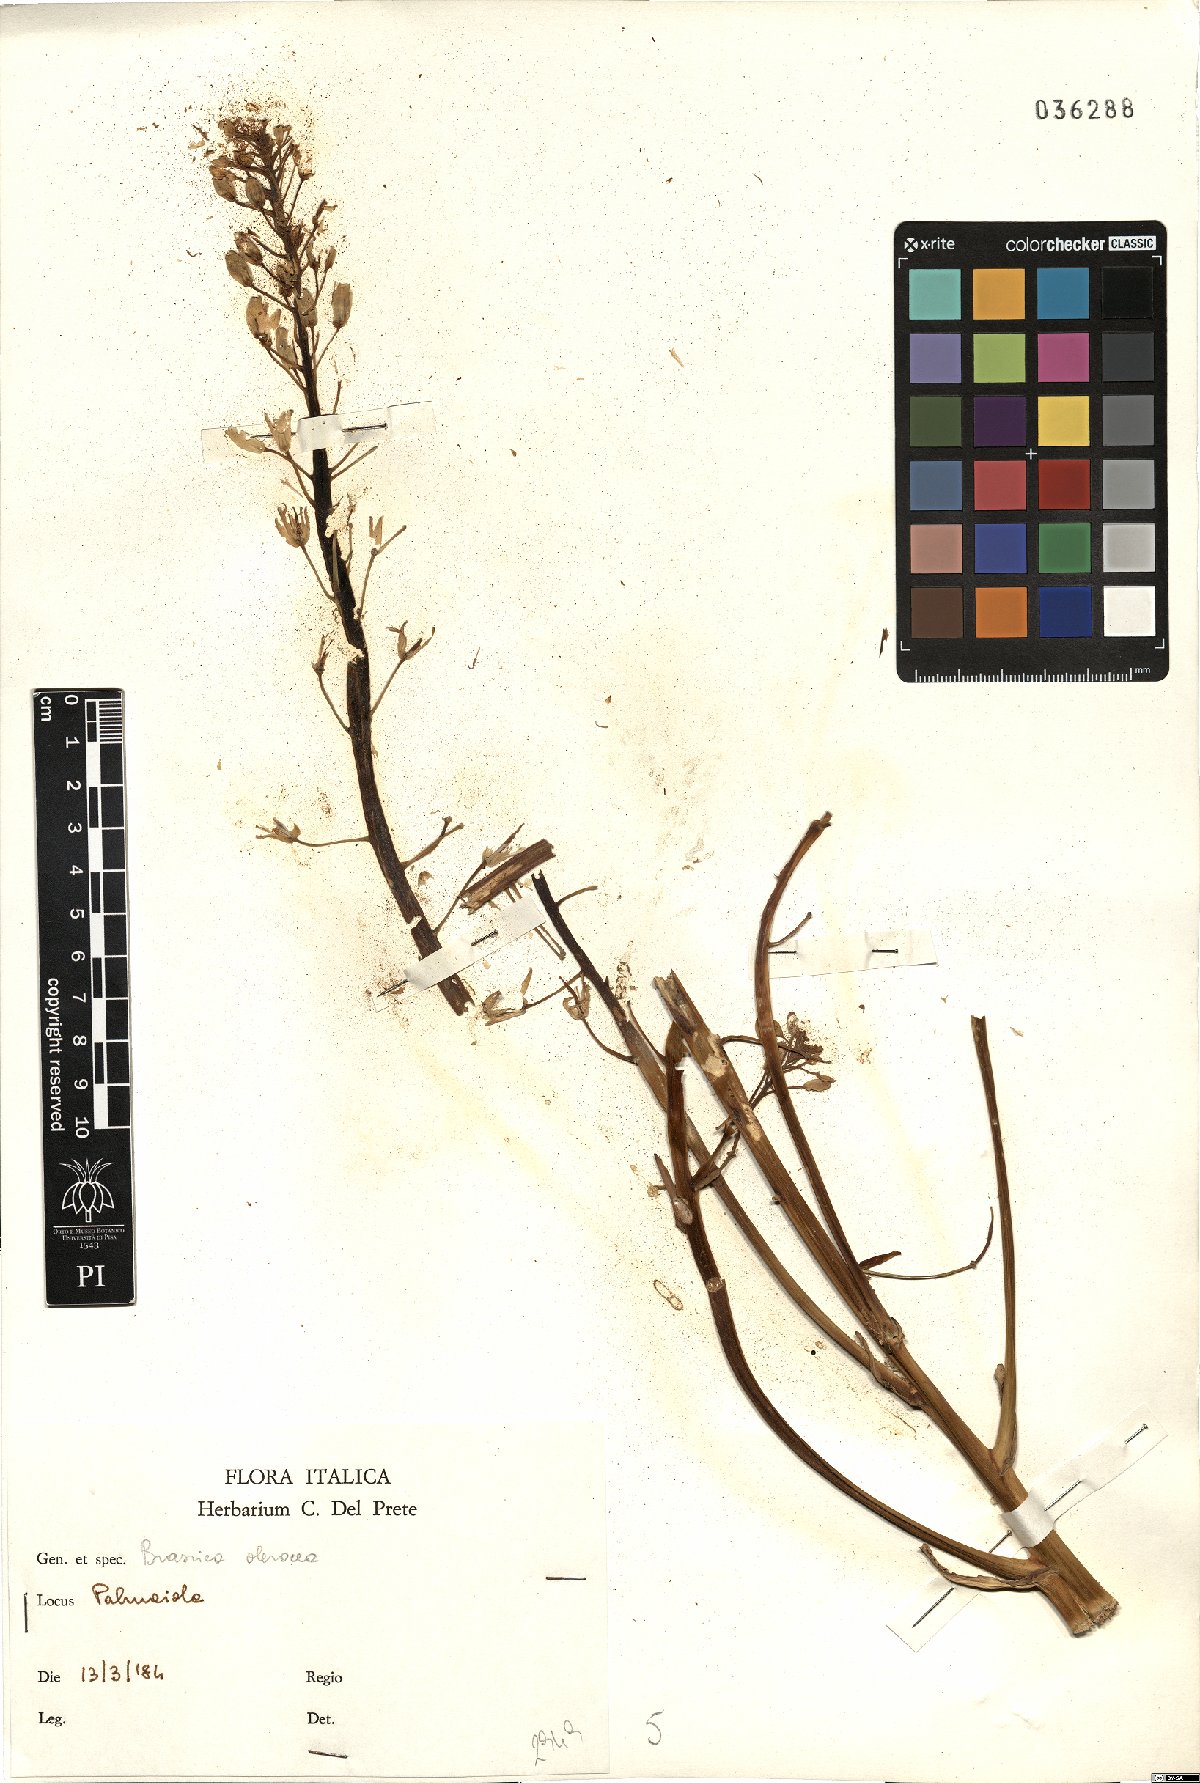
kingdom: Plantae
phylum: Tracheophyta
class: Magnoliopsida
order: Brassicales
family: Brassicaceae
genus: Brassica
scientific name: Brassica oleracea
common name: Cabbage
